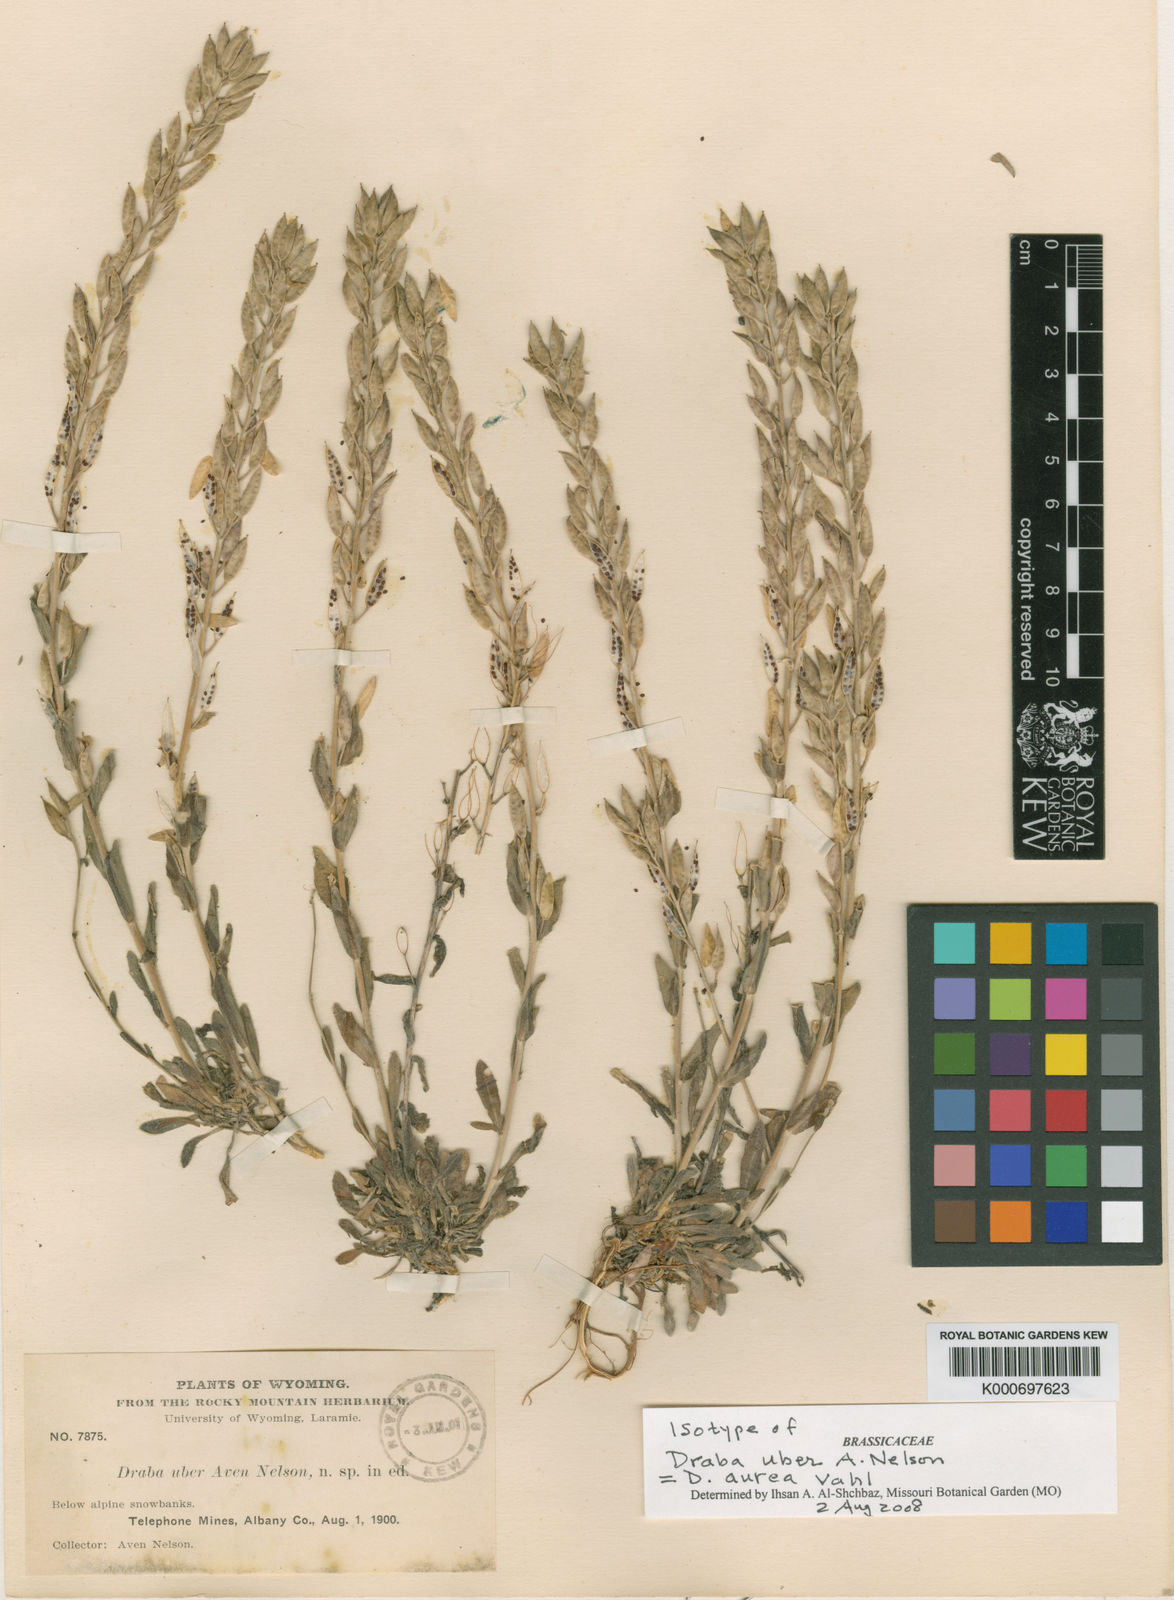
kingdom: Plantae
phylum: Tracheophyta
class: Magnoliopsida
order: Brassicales
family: Brassicaceae
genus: Draba
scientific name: Draba aurea
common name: Golden draba
